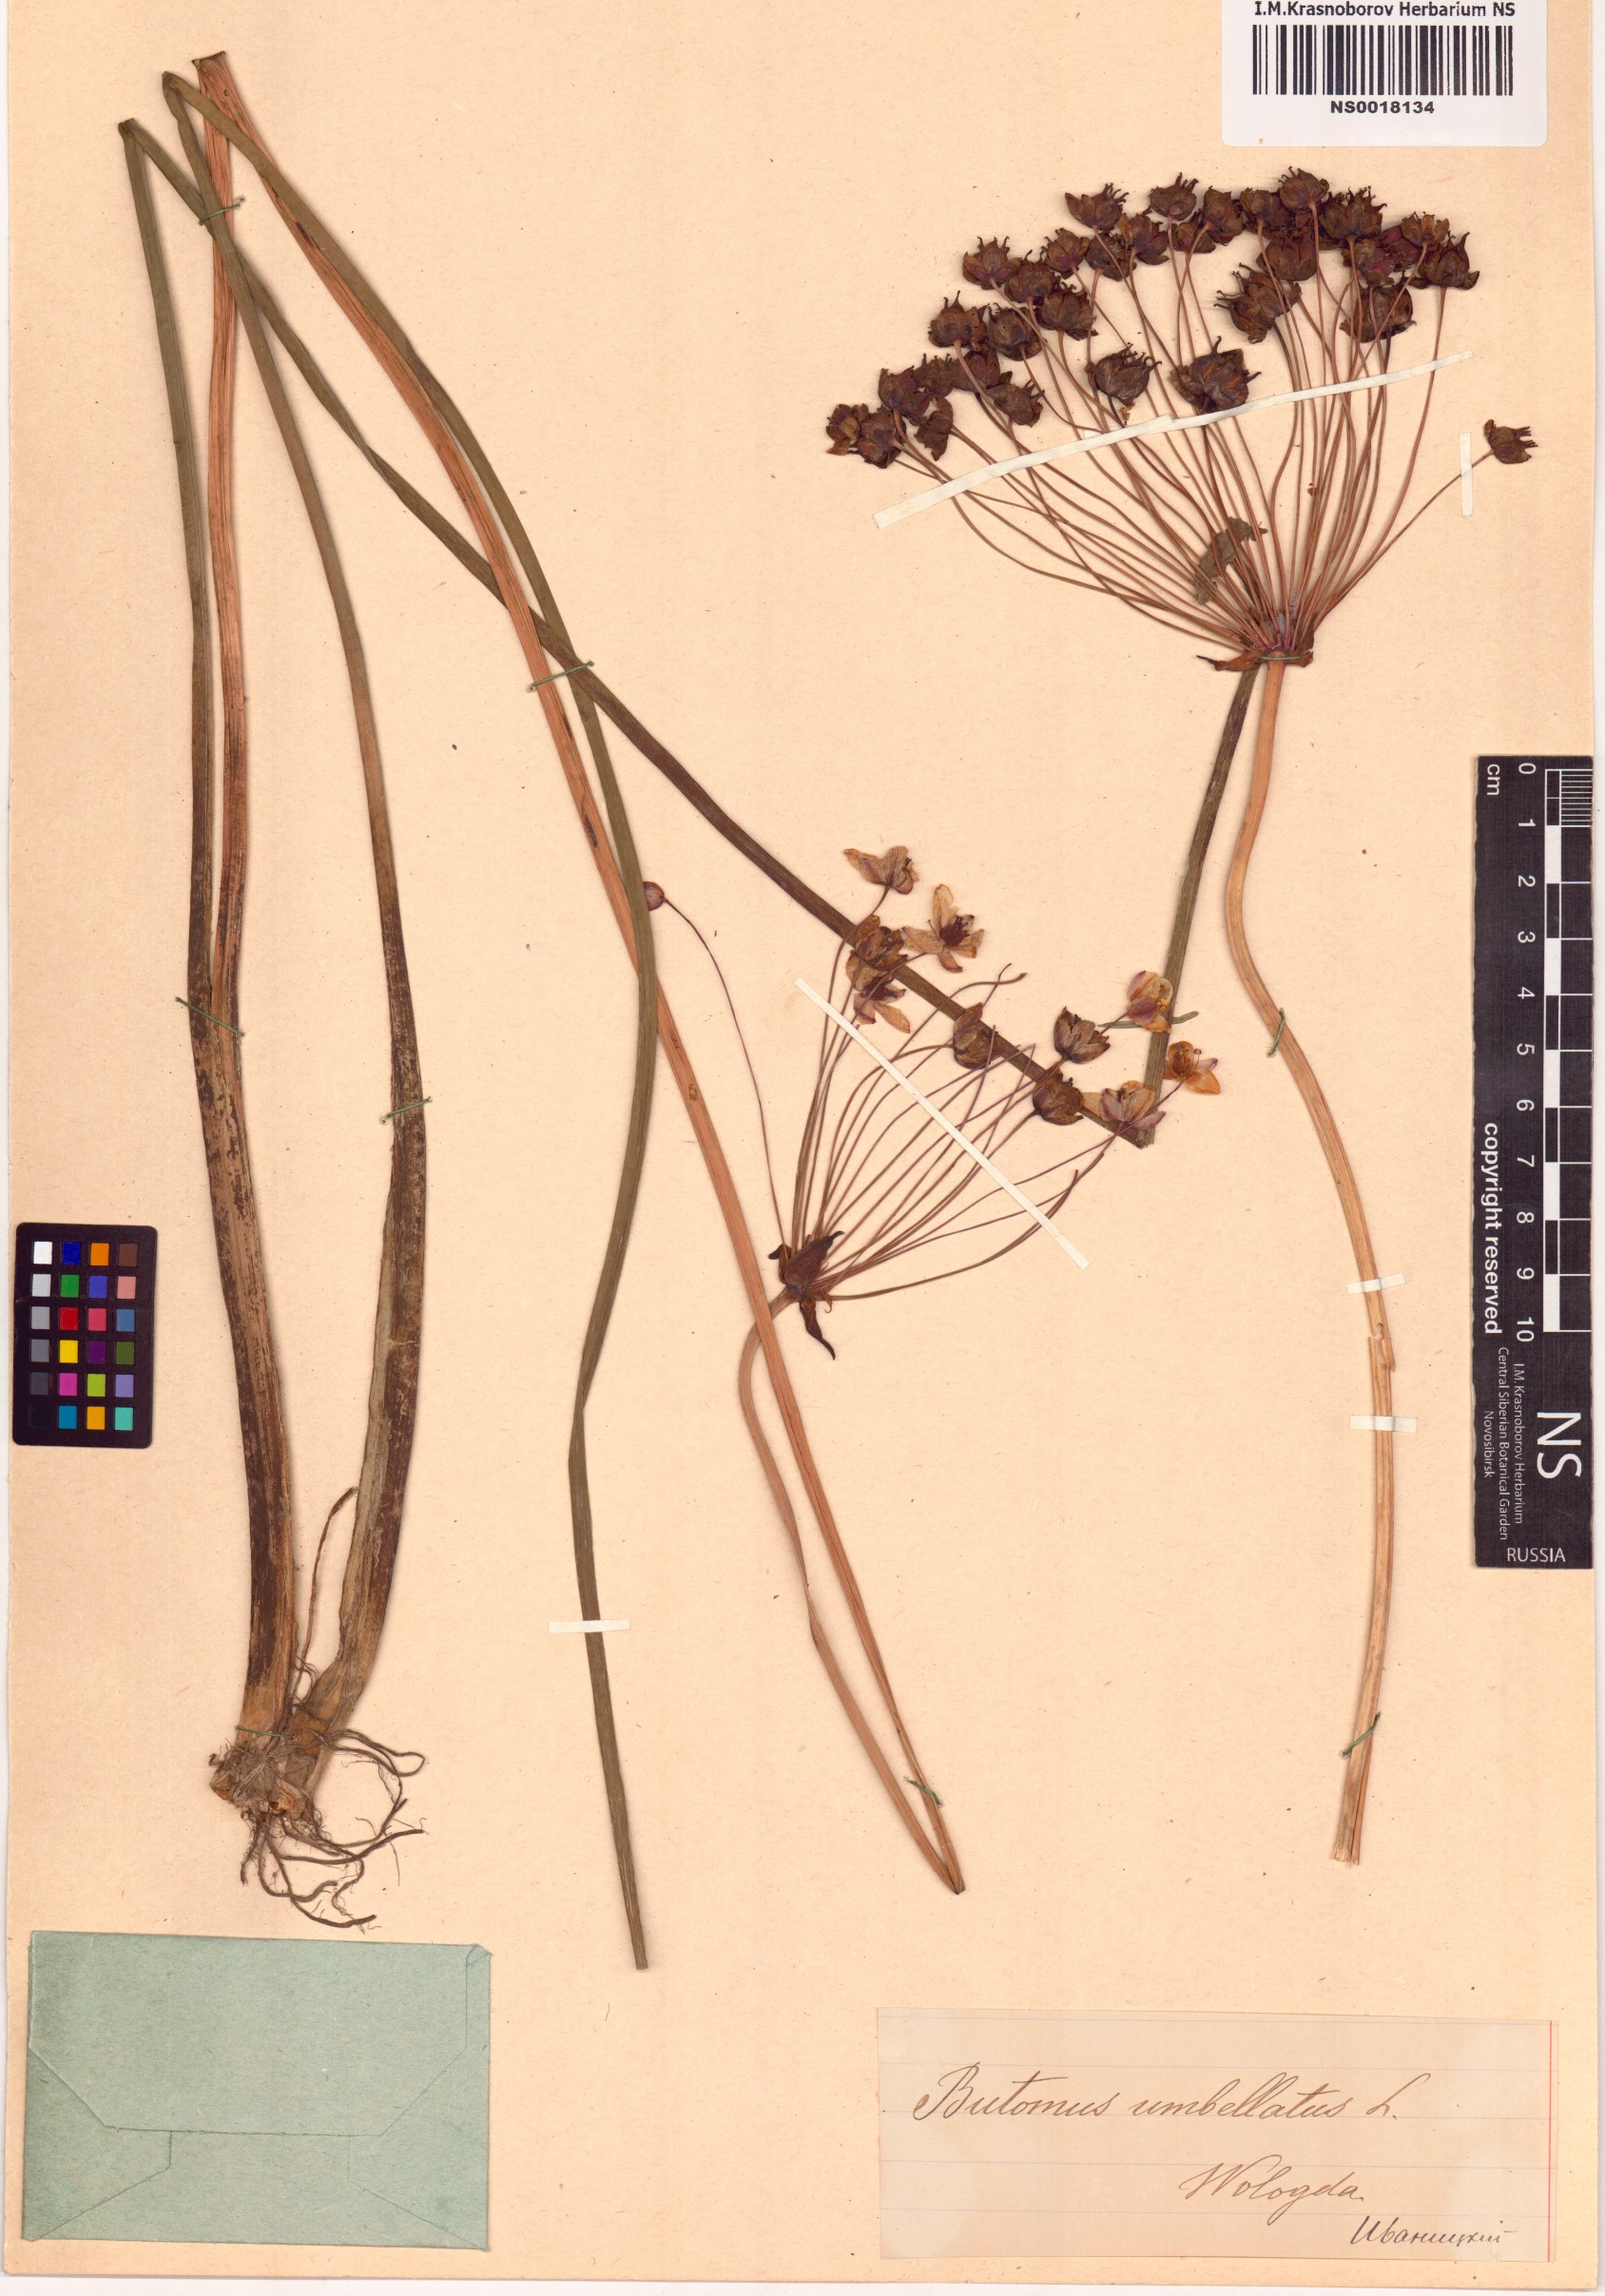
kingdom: Plantae
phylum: Tracheophyta
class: Liliopsida
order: Alismatales
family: Butomaceae
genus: Butomus
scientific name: Butomus umbellatus
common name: Flowering-rush
